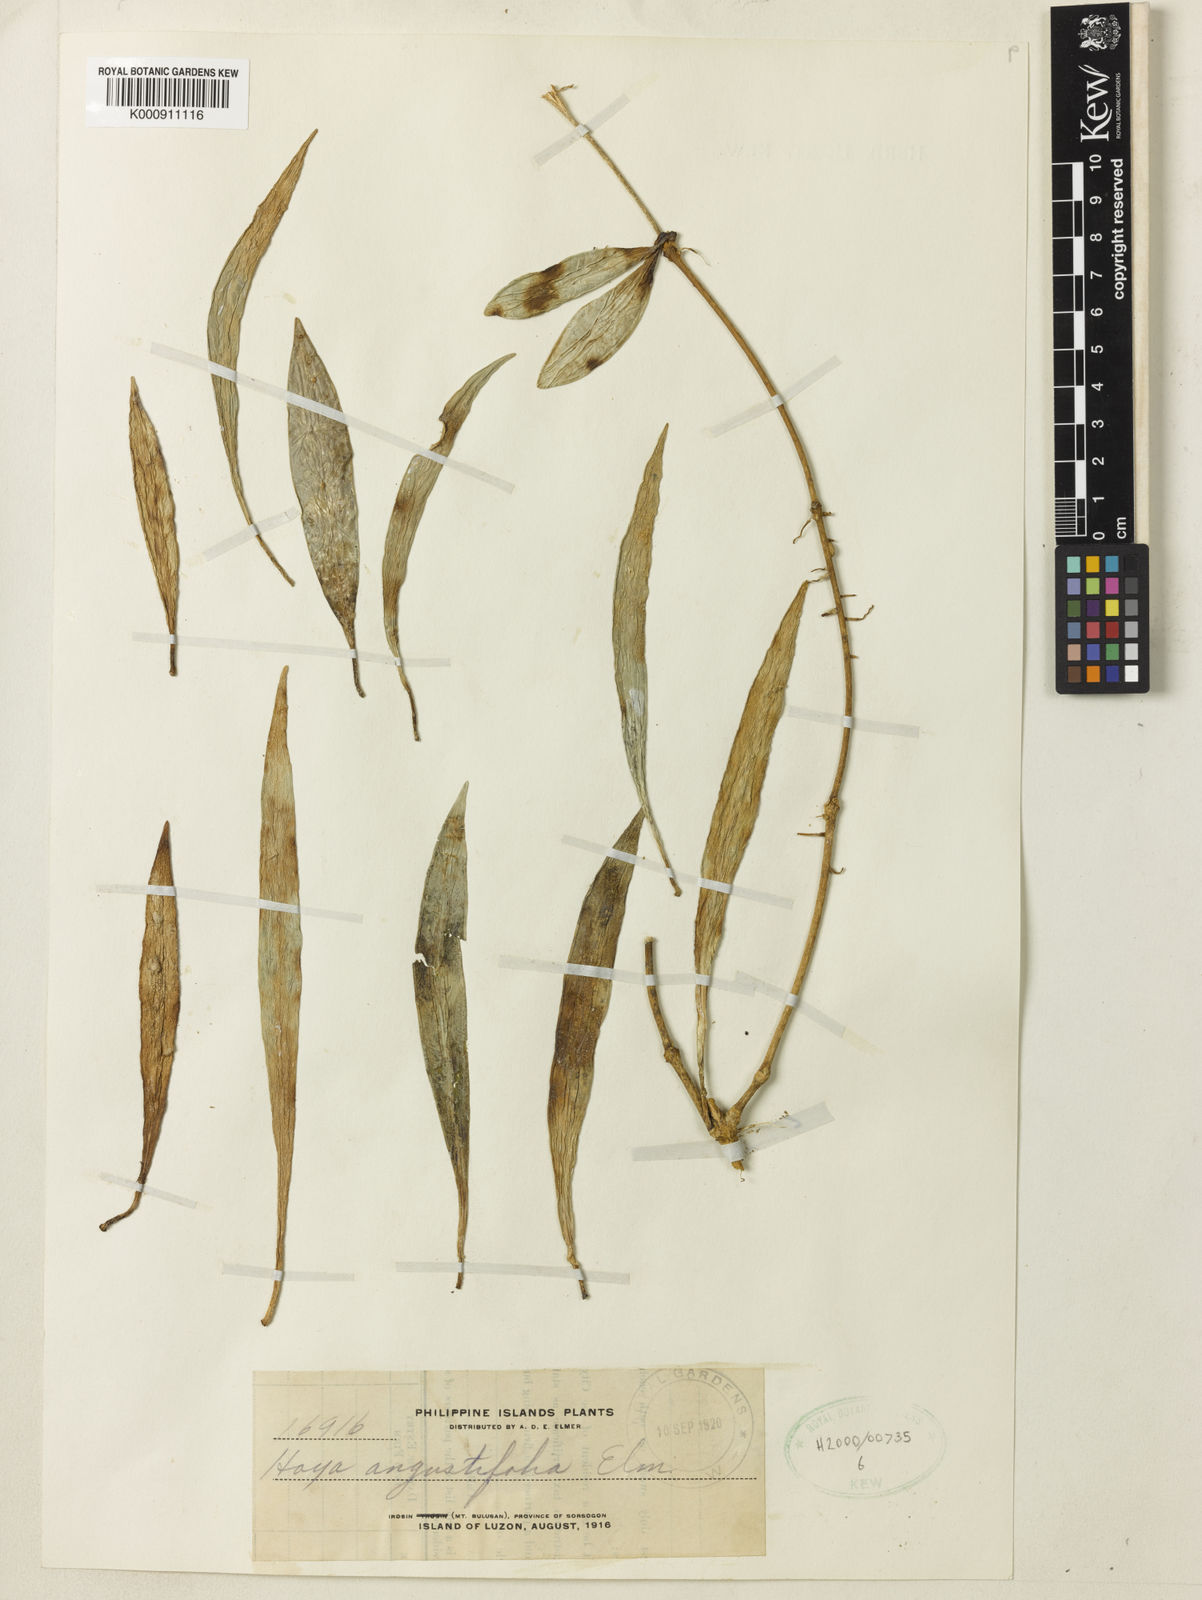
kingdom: Plantae
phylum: Tracheophyta
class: Magnoliopsida
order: Gentianales
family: Apocynaceae
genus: Hoya
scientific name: Hoya
